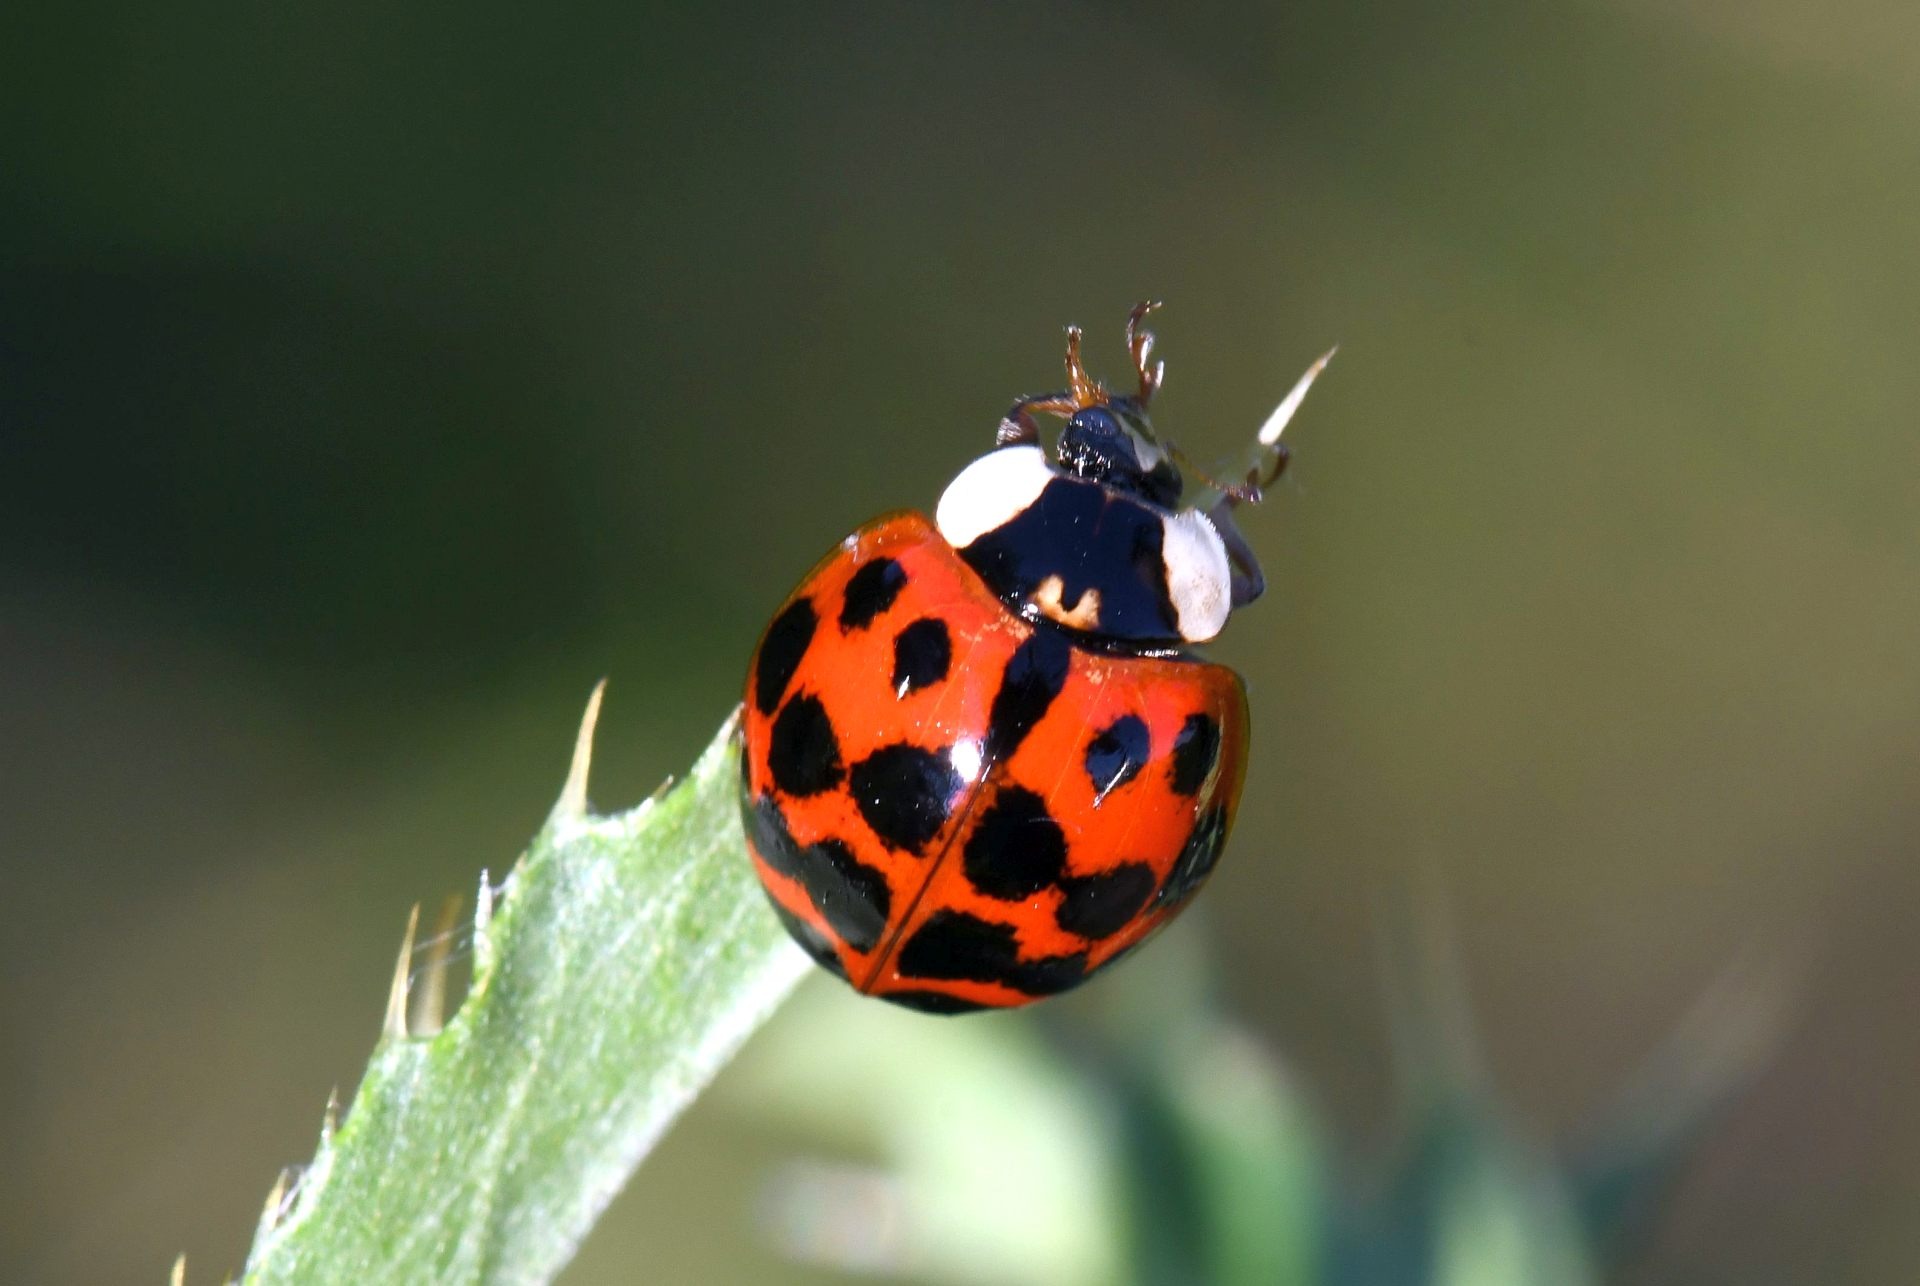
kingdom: Animalia
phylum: Arthropoda
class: Insecta
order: Coleoptera
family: Coccinellidae
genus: Harmonia
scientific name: Harmonia axyridis
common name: Harlekinmariehøne
